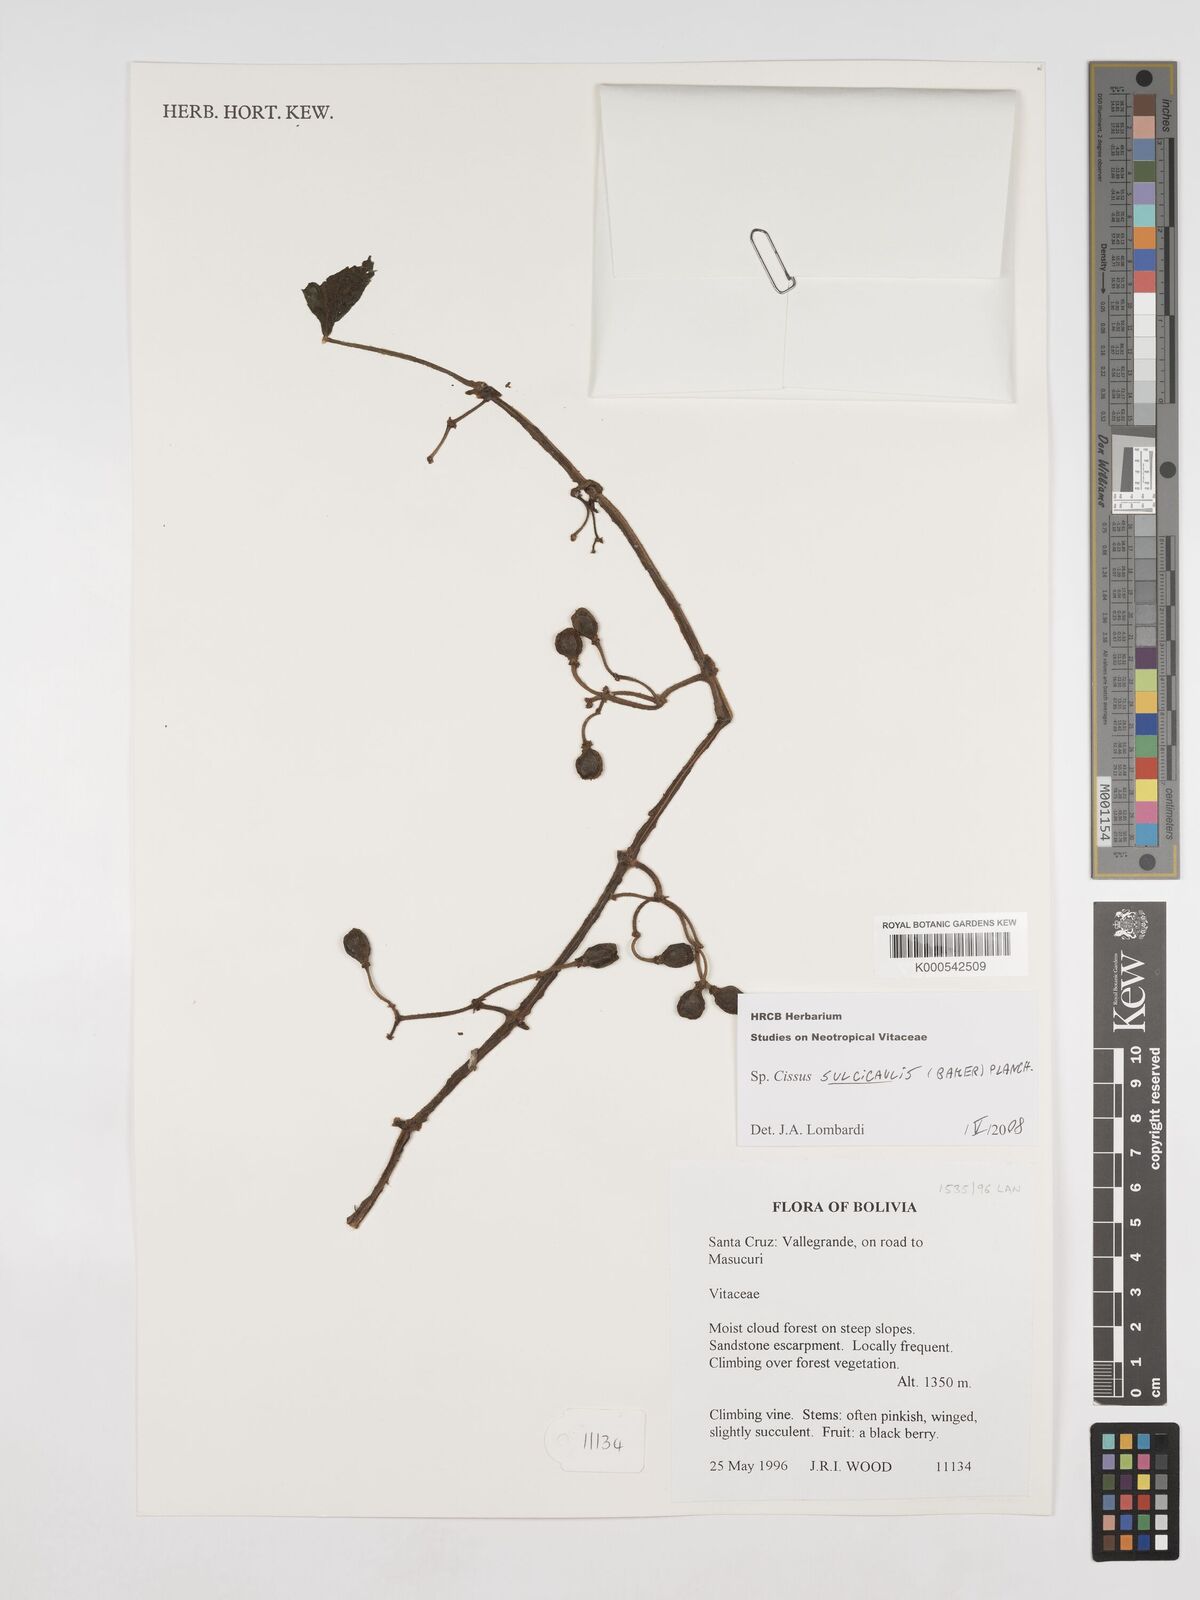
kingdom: Plantae
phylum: Tracheophyta
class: Magnoliopsida
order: Vitales
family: Vitaceae
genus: Cissus
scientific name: Cissus sulcicaulis
